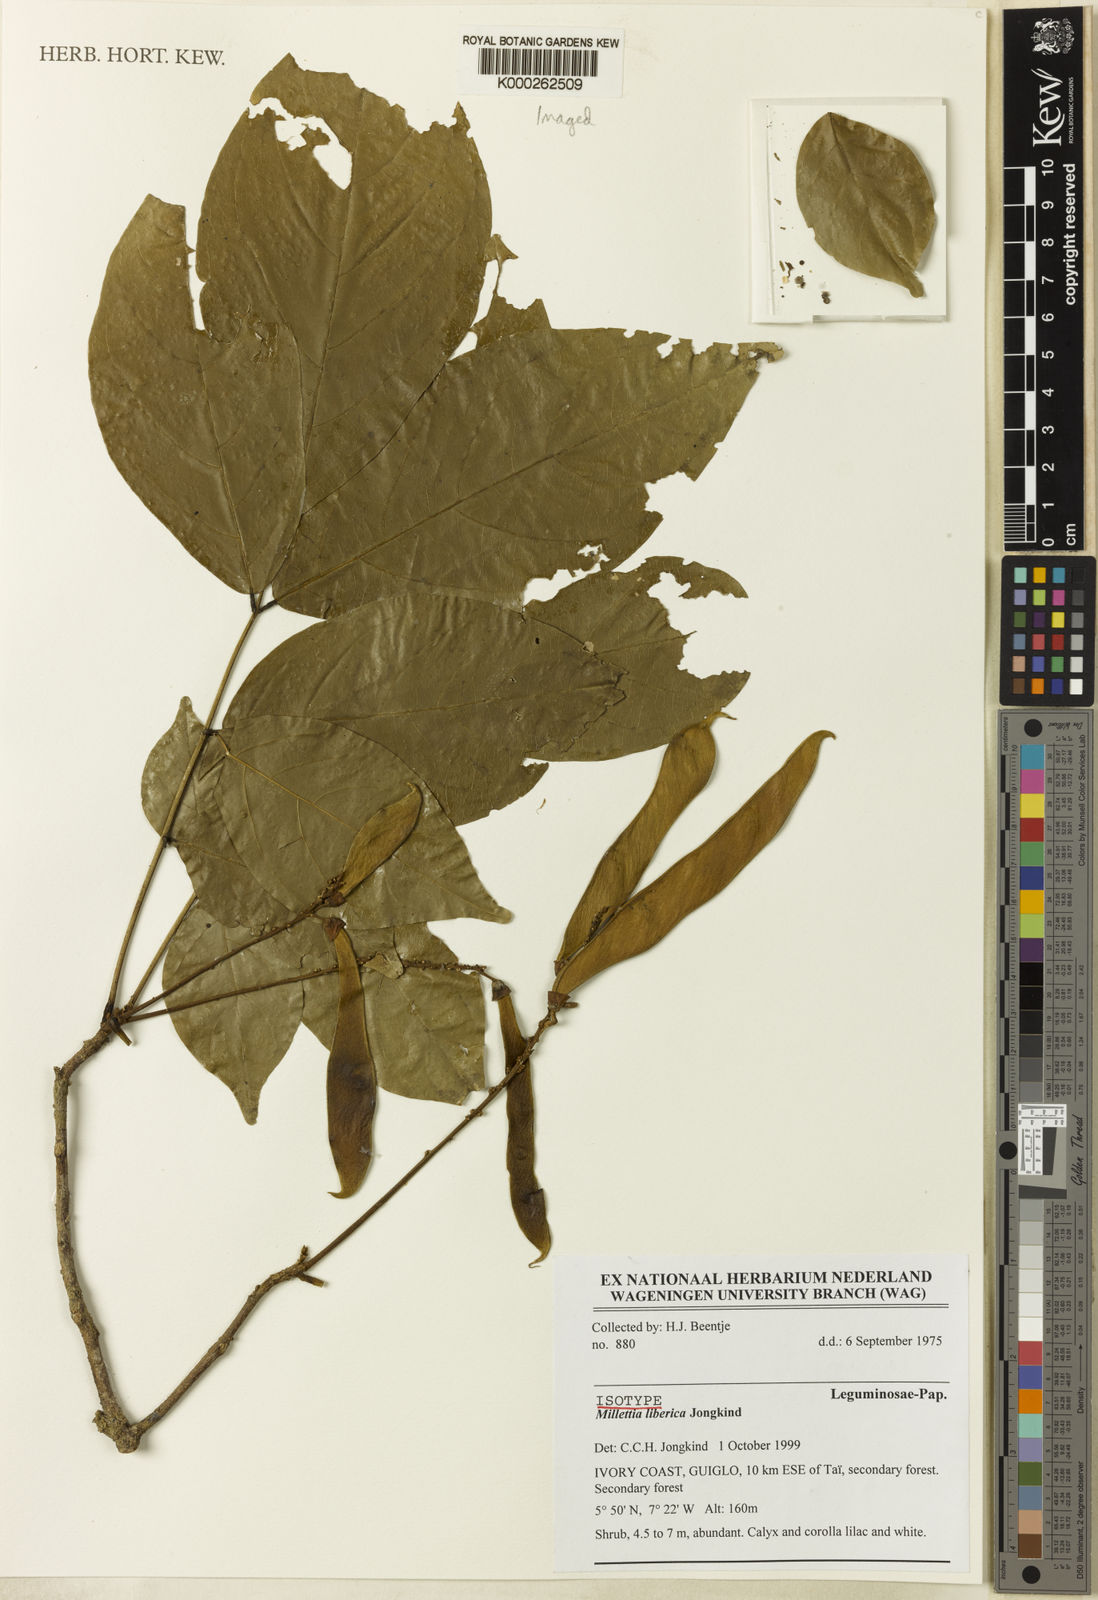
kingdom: Plantae
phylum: Tracheophyta
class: Magnoliopsida
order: Fabales
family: Fabaceae
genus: Millettia
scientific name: Millettia liberica
